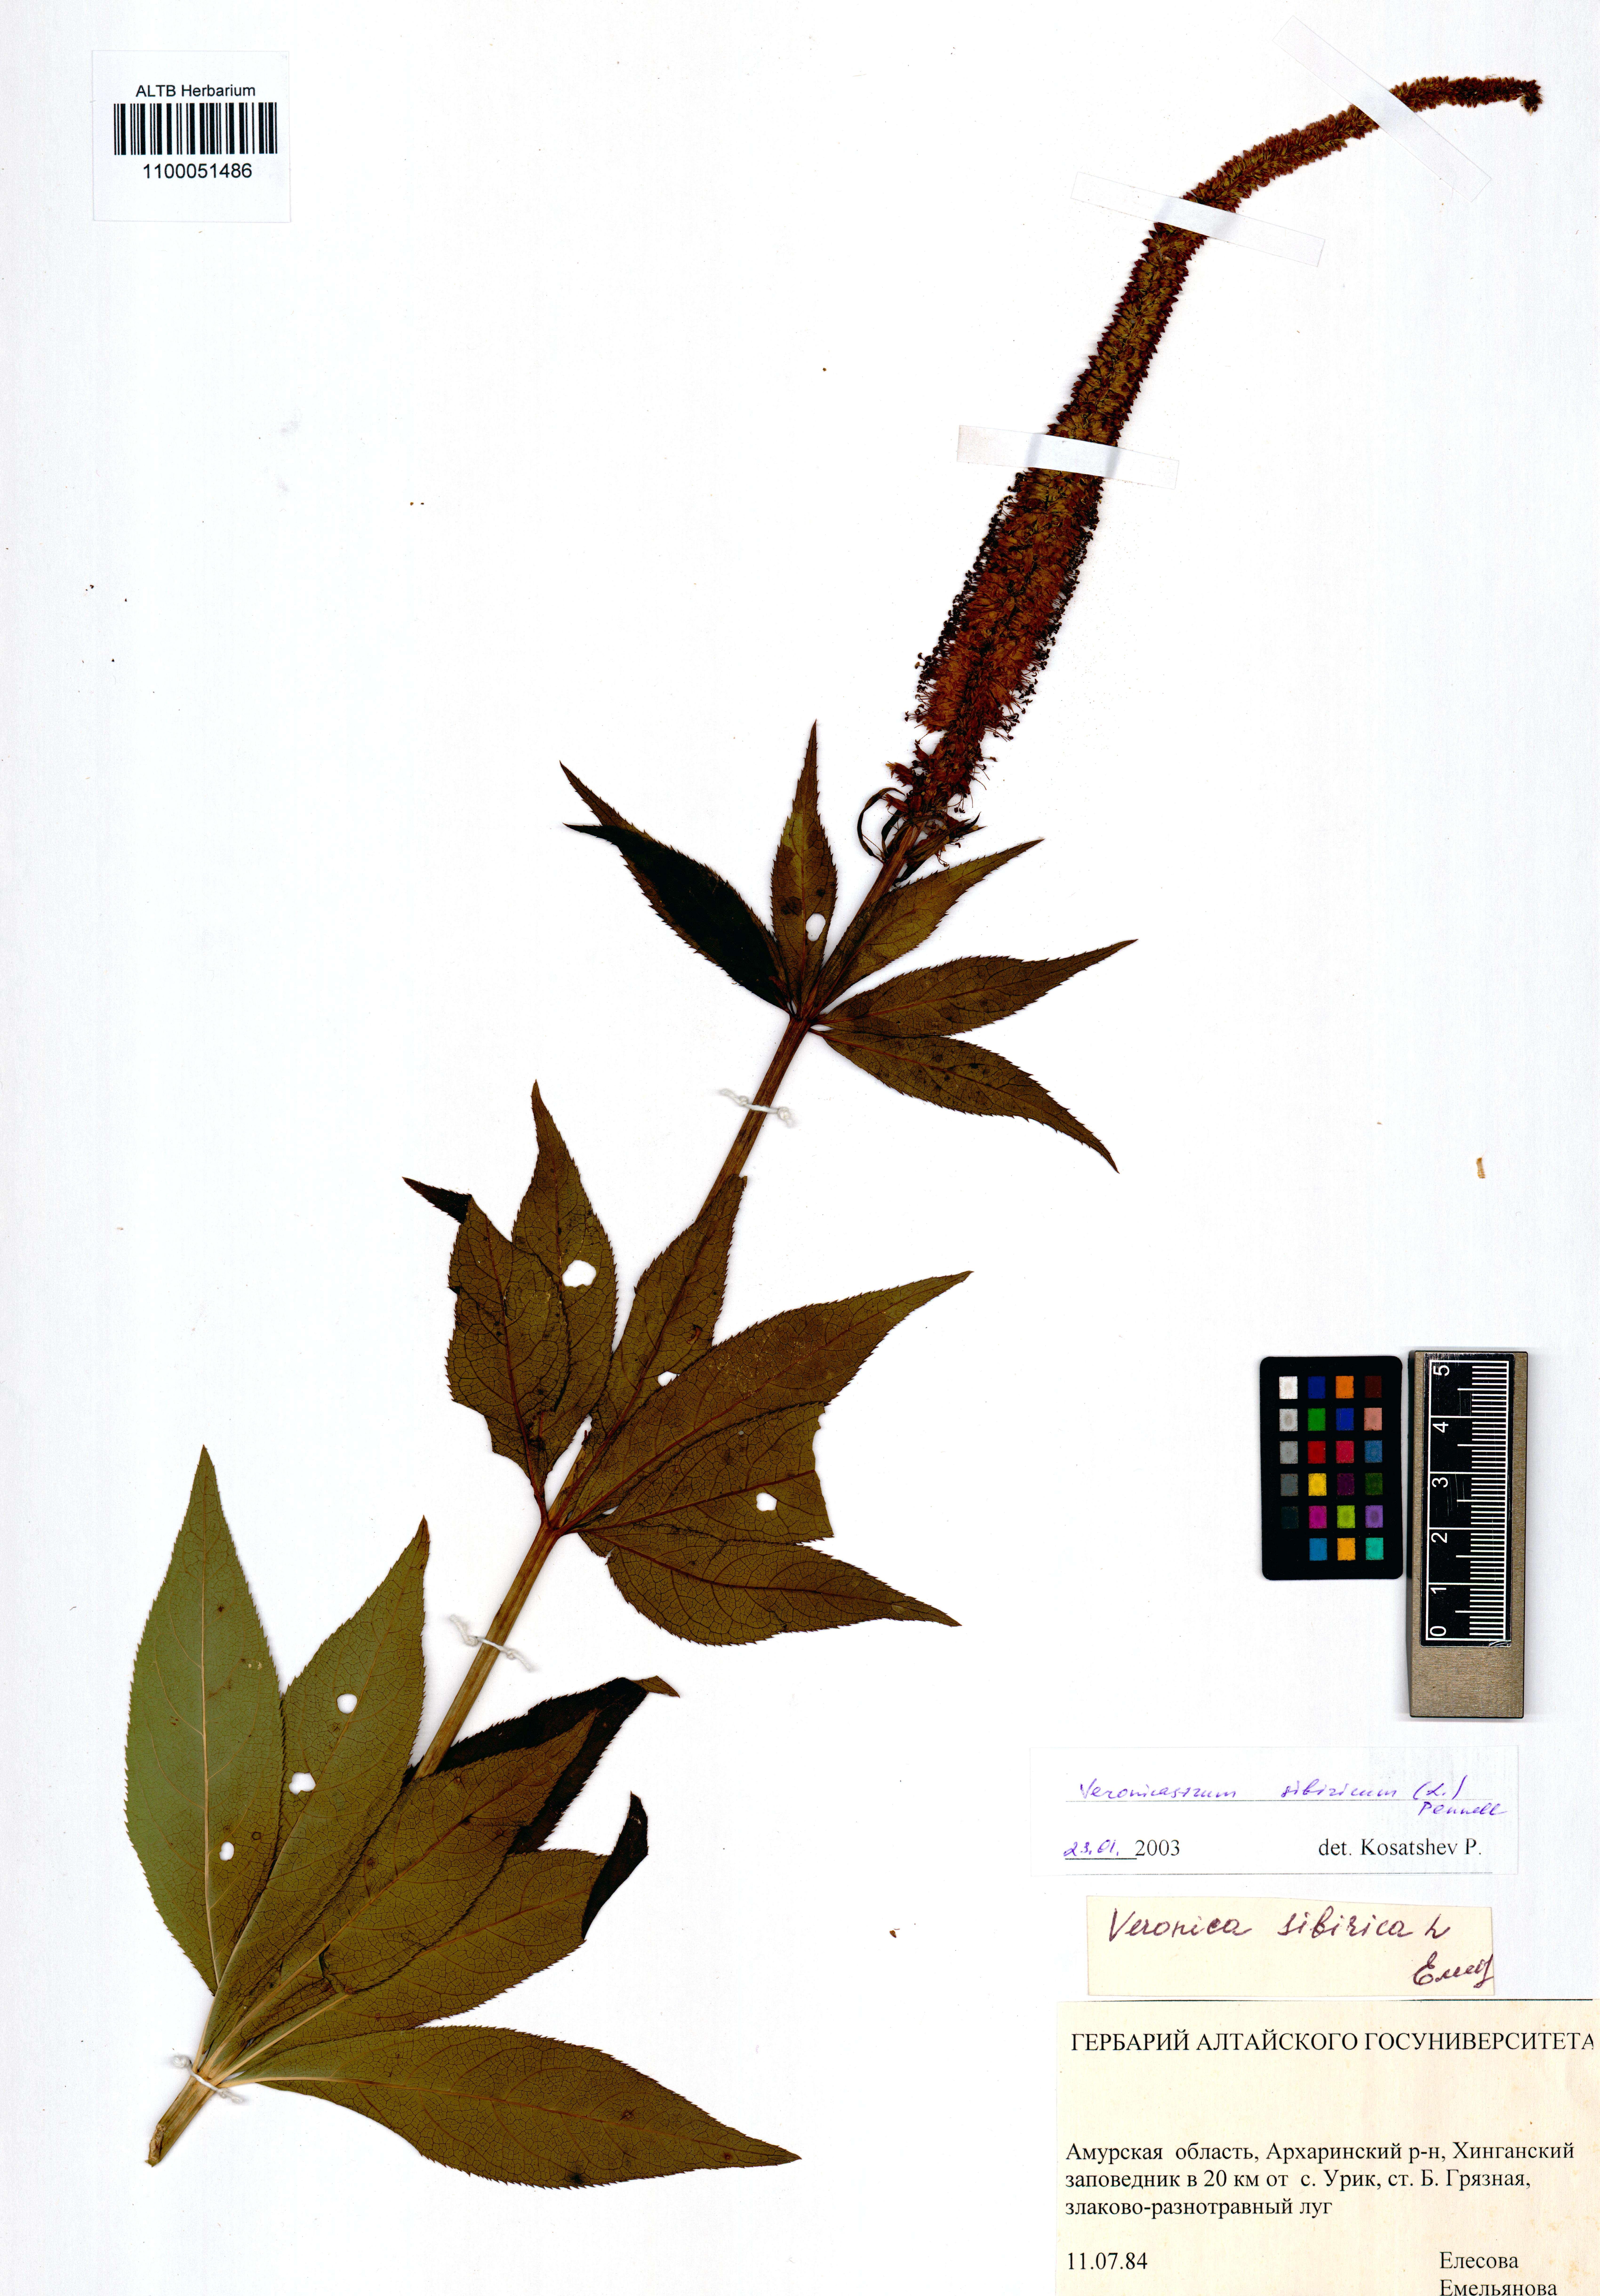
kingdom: Plantae
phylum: Tracheophyta
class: Magnoliopsida
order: Lamiales
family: Plantaginaceae
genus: Veronicastrum
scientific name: Veronicastrum sibiricum
